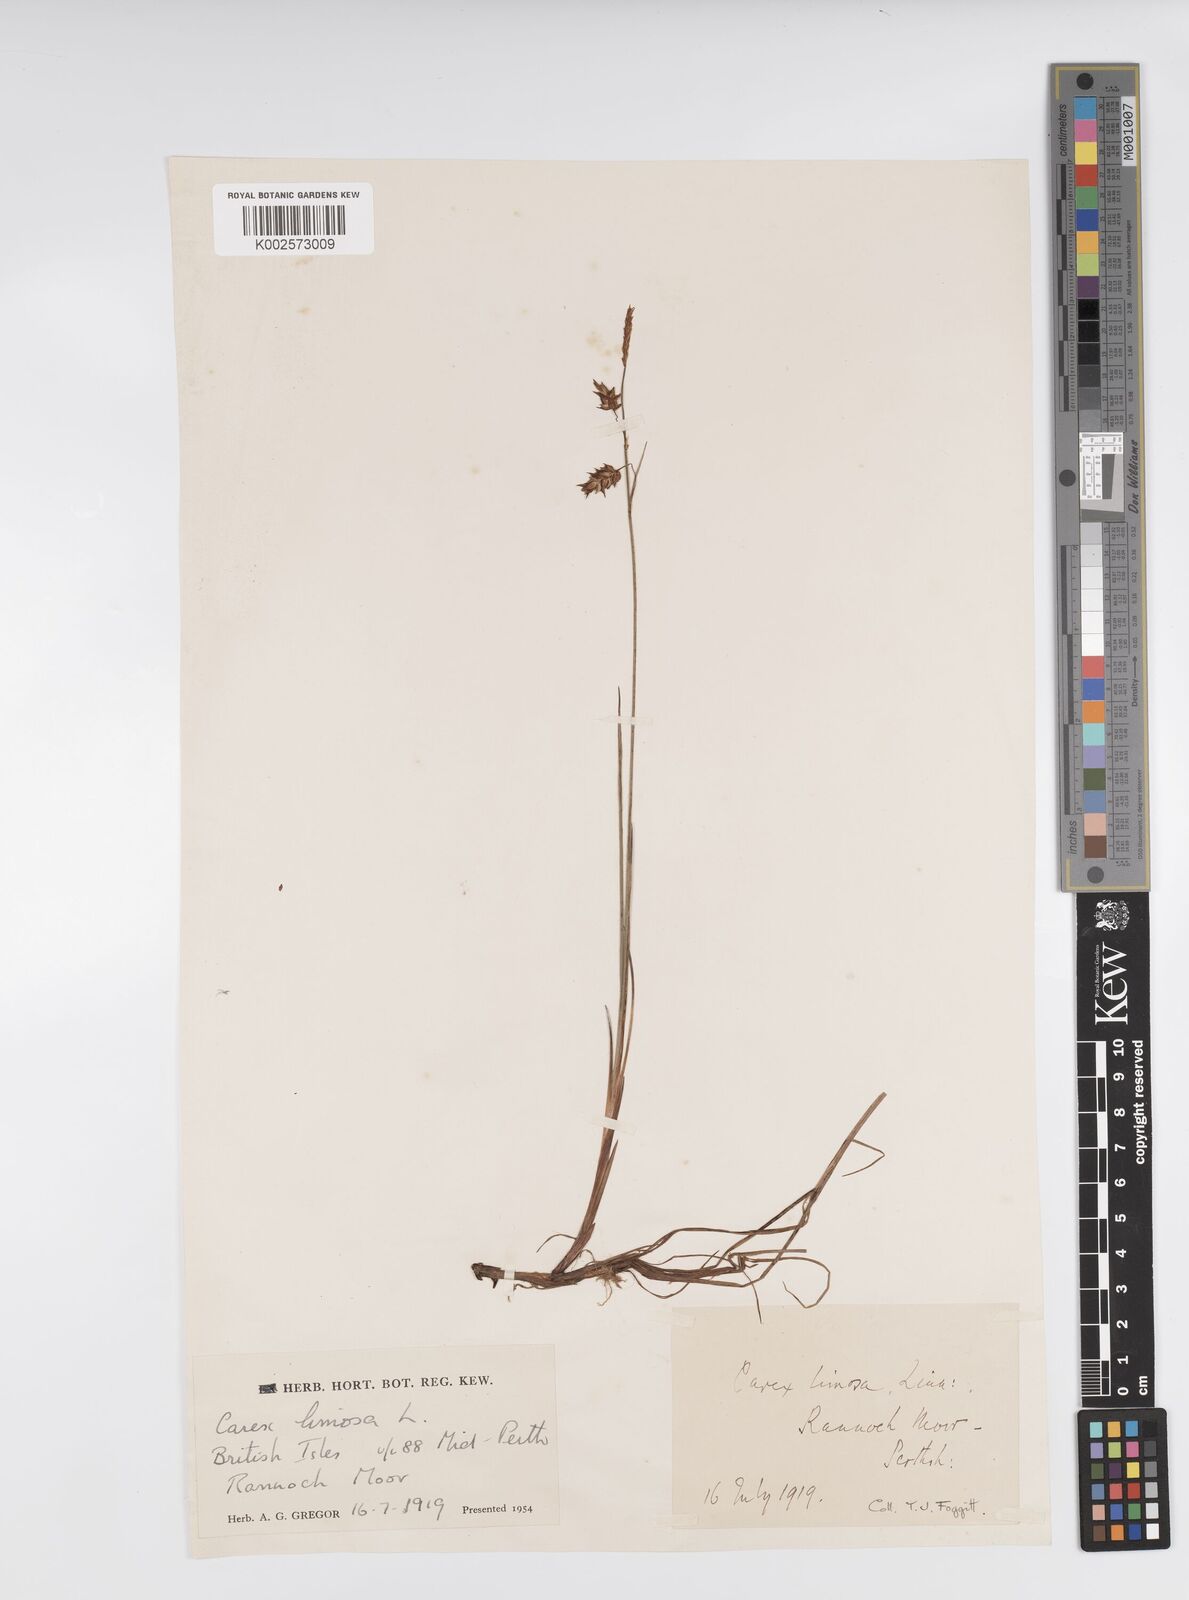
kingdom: Plantae
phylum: Tracheophyta
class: Liliopsida
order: Poales
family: Cyperaceae
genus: Carex
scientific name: Carex limosa
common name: Bog sedge
